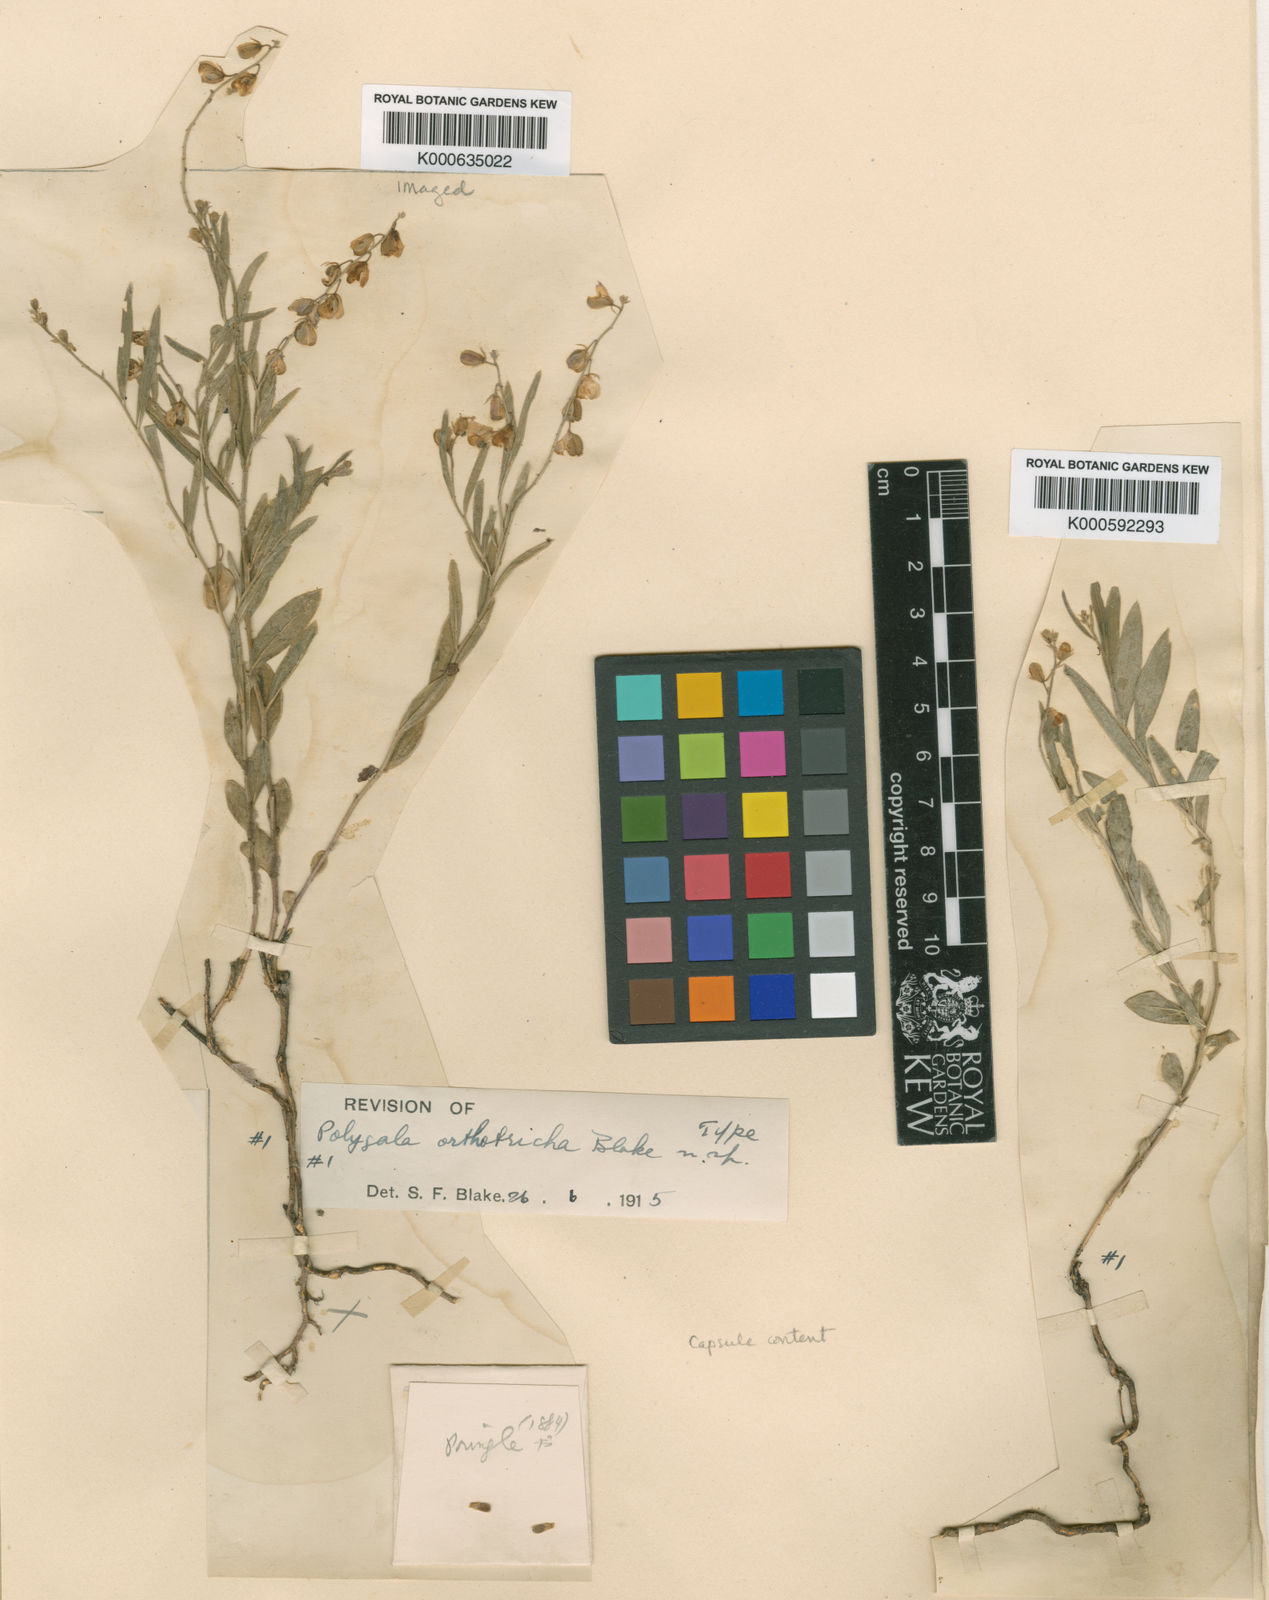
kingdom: Plantae
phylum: Tracheophyta
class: Magnoliopsida
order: Fabales
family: Polygalaceae
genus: Hebecarpa
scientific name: Hebecarpa obscura
